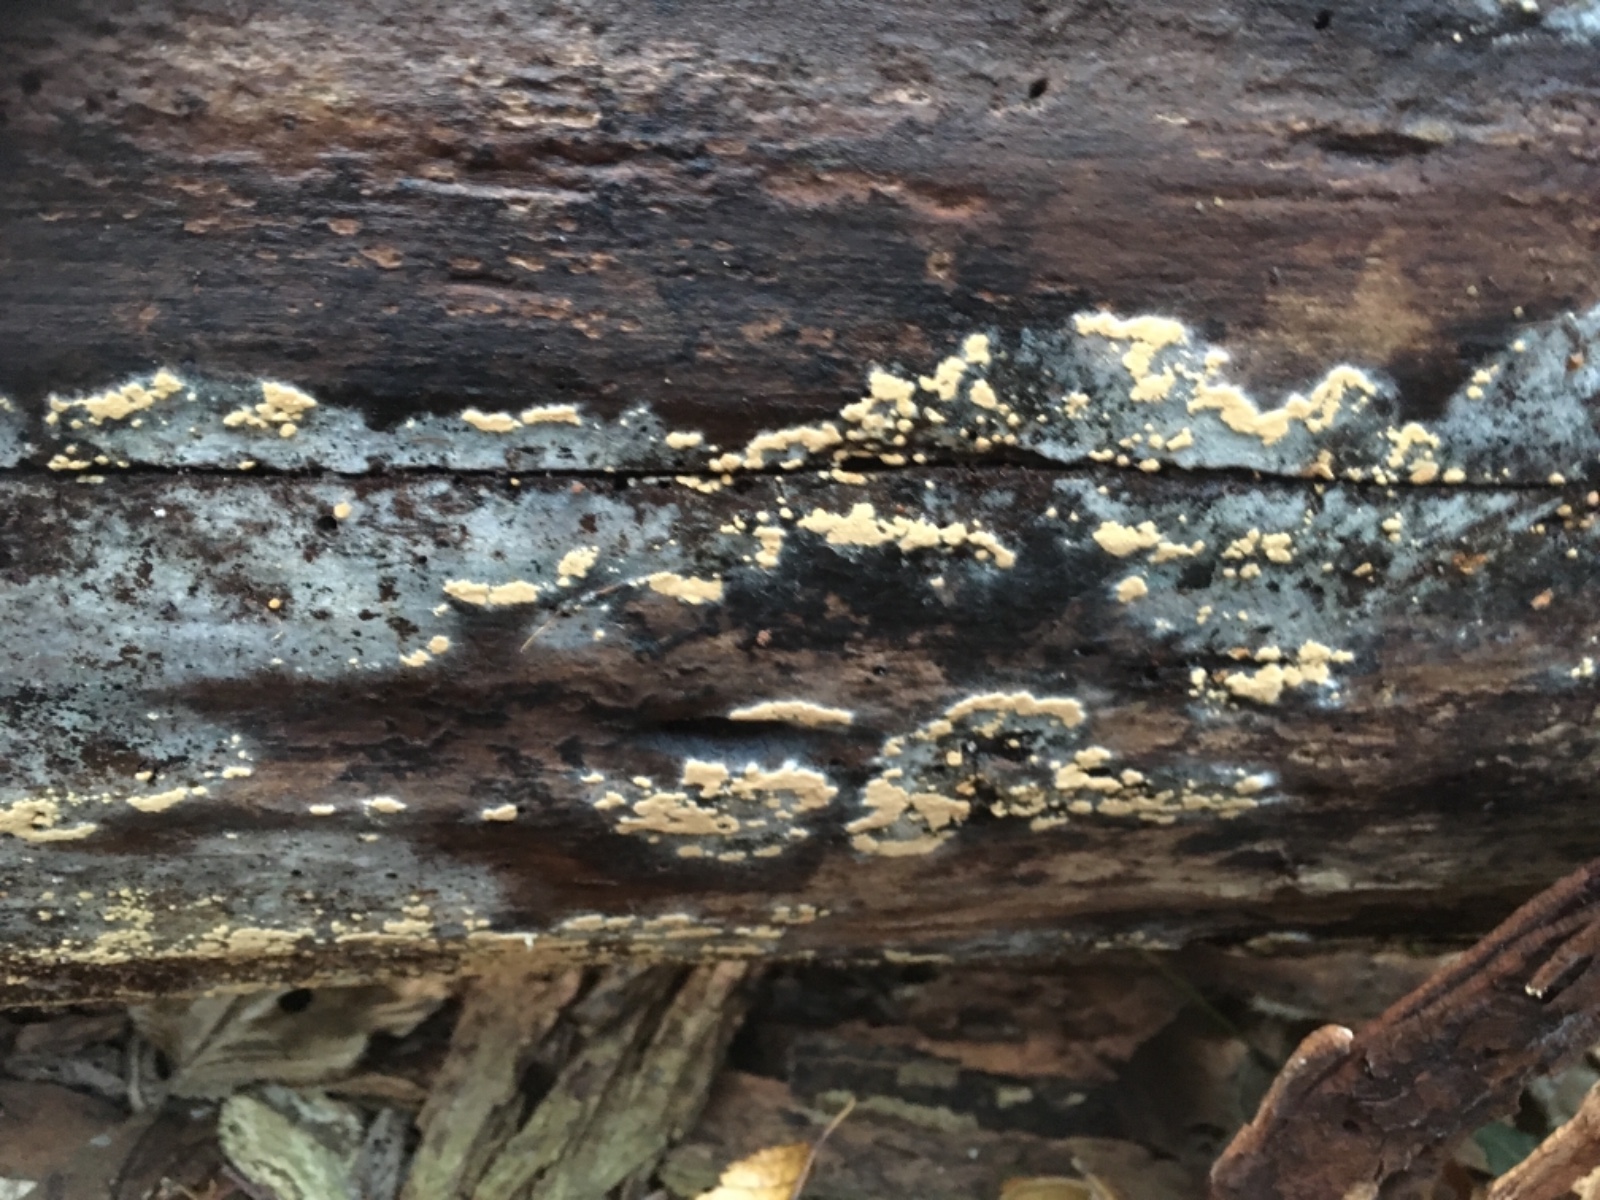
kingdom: Fungi
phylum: Basidiomycota
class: Agaricomycetes
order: Cantharellales
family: Botryobasidiaceae
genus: Botryobasidium
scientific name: Botryobasidium aureum
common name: gylden spindhinde
